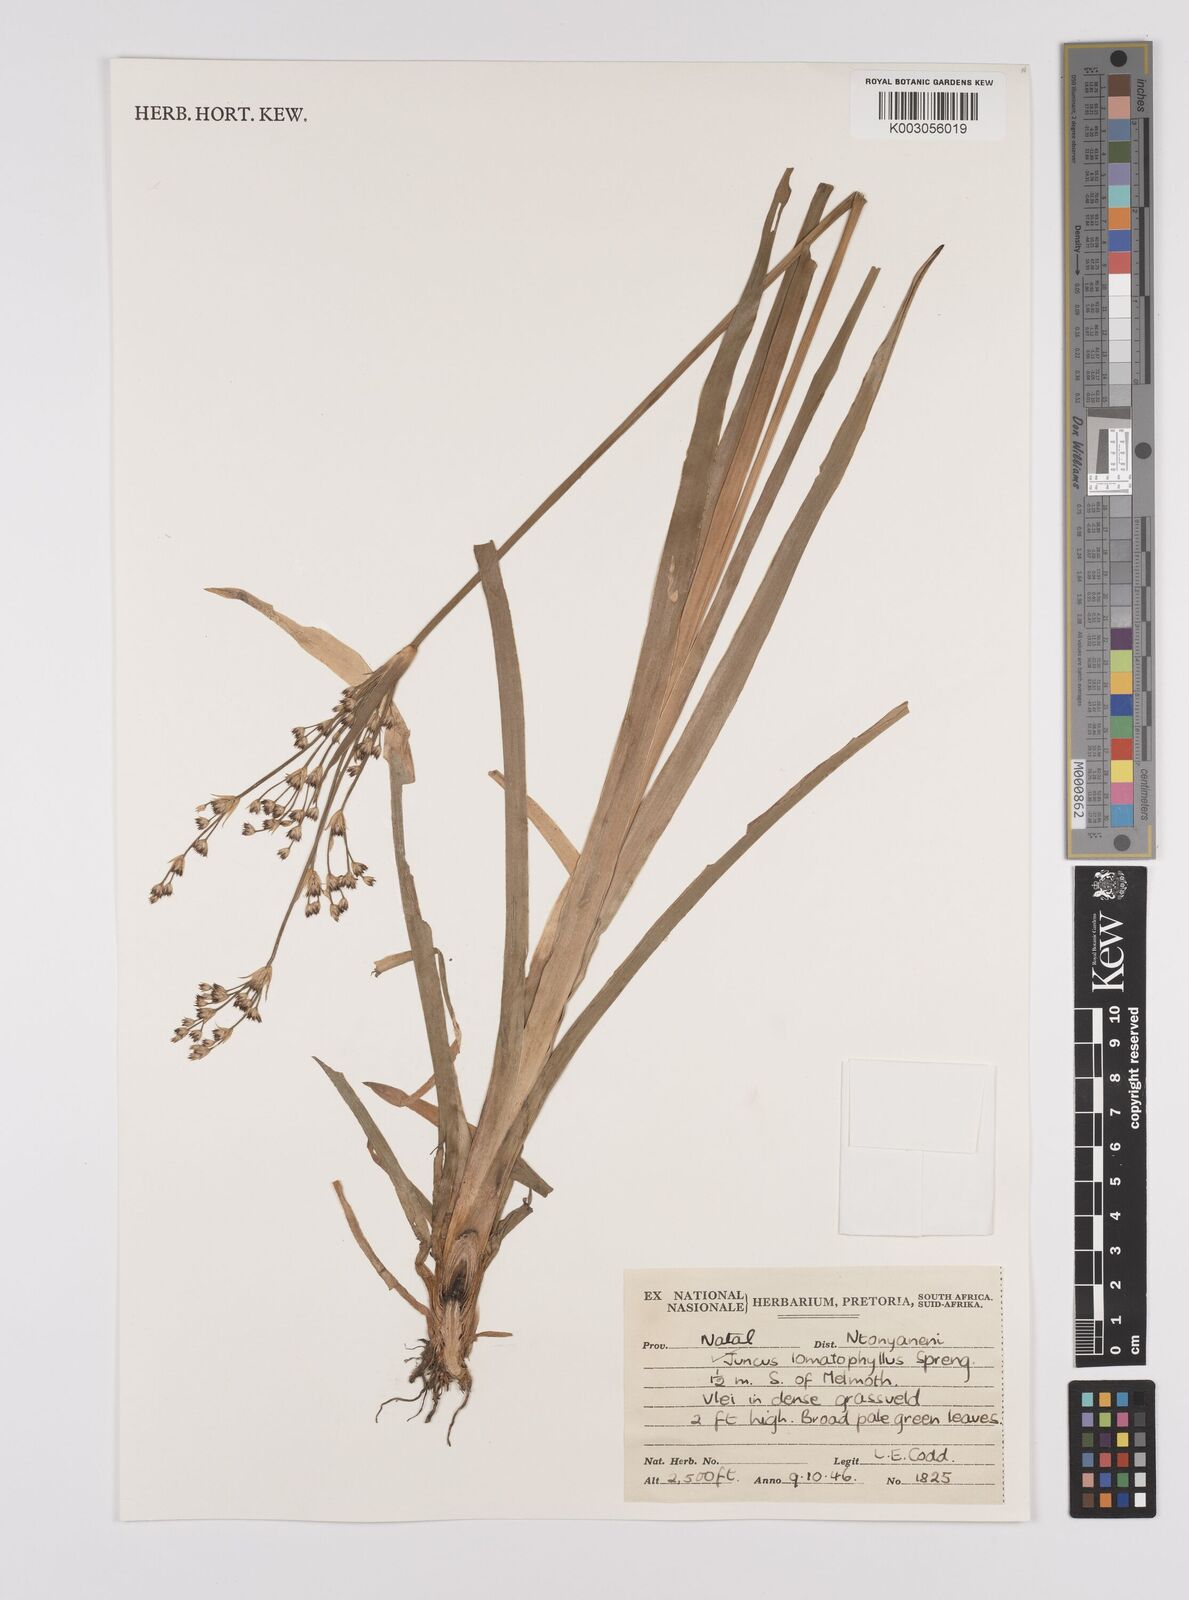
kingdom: Plantae
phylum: Tracheophyta
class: Liliopsida
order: Poales
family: Juncaceae
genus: Juncus
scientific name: Juncus lomatophyllus
